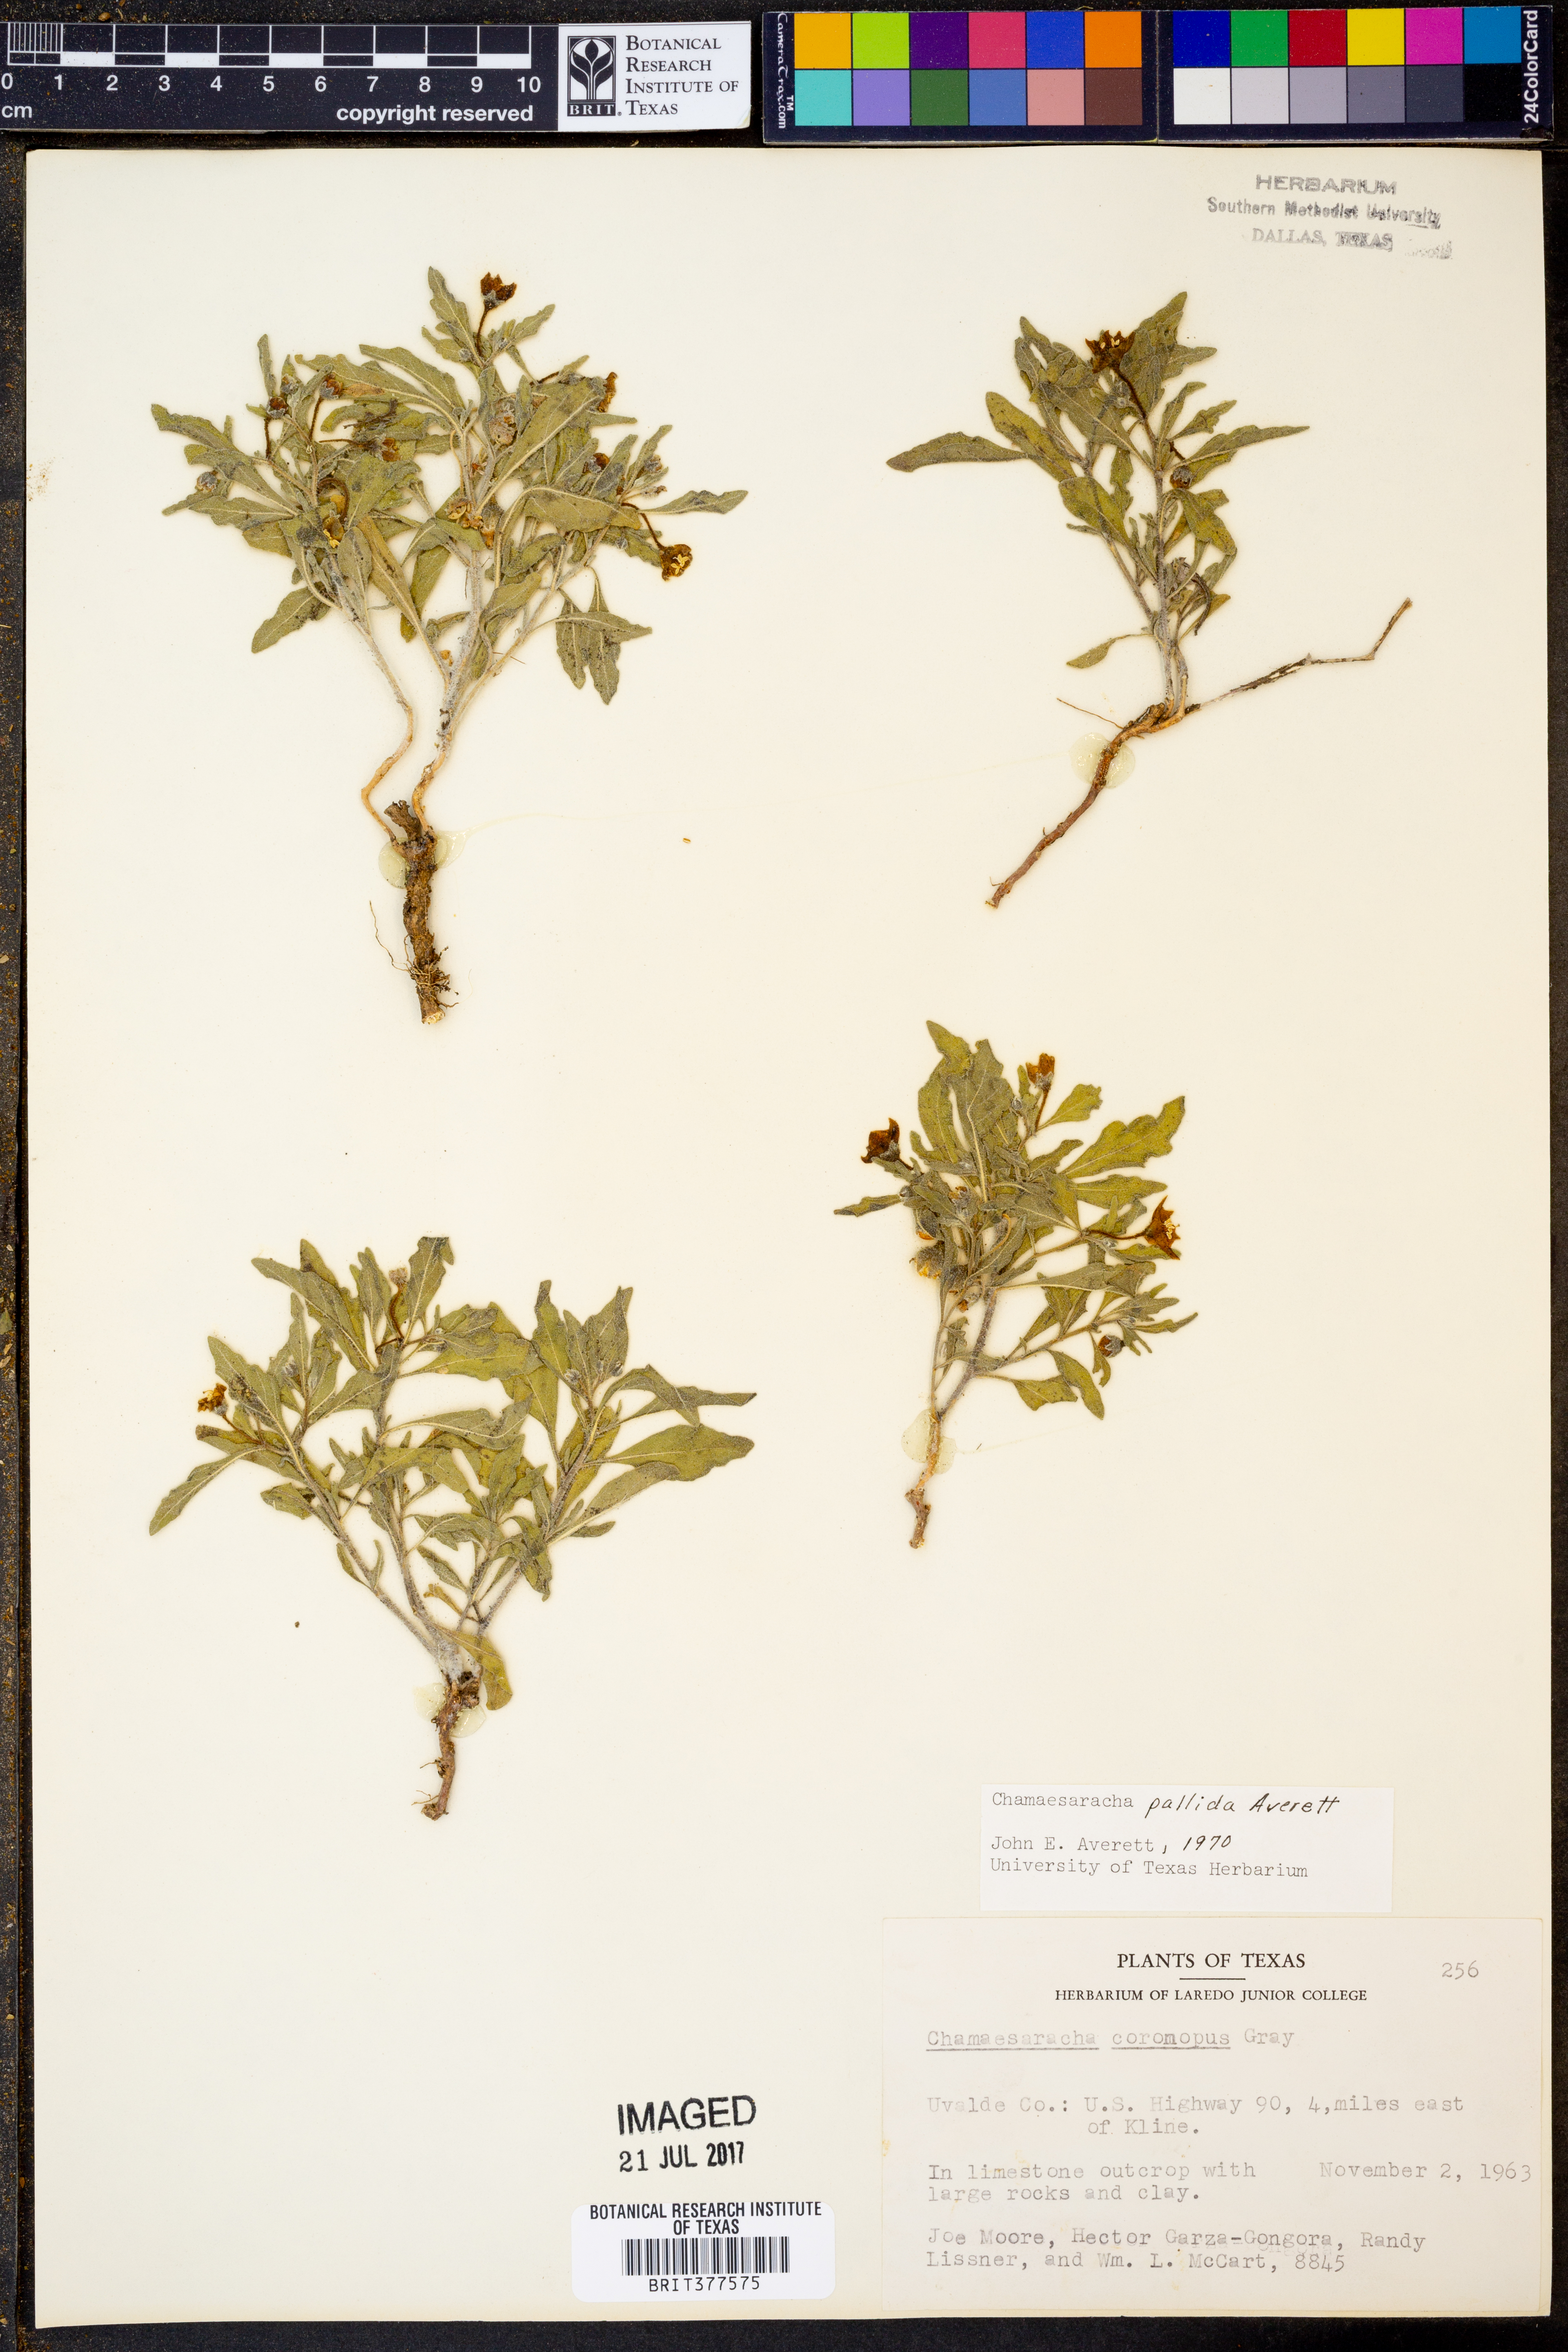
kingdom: Plantae
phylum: Tracheophyta
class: Magnoliopsida
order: Solanales
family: Solanaceae
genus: Chamaesaracha
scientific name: Chamaesaracha pallida
